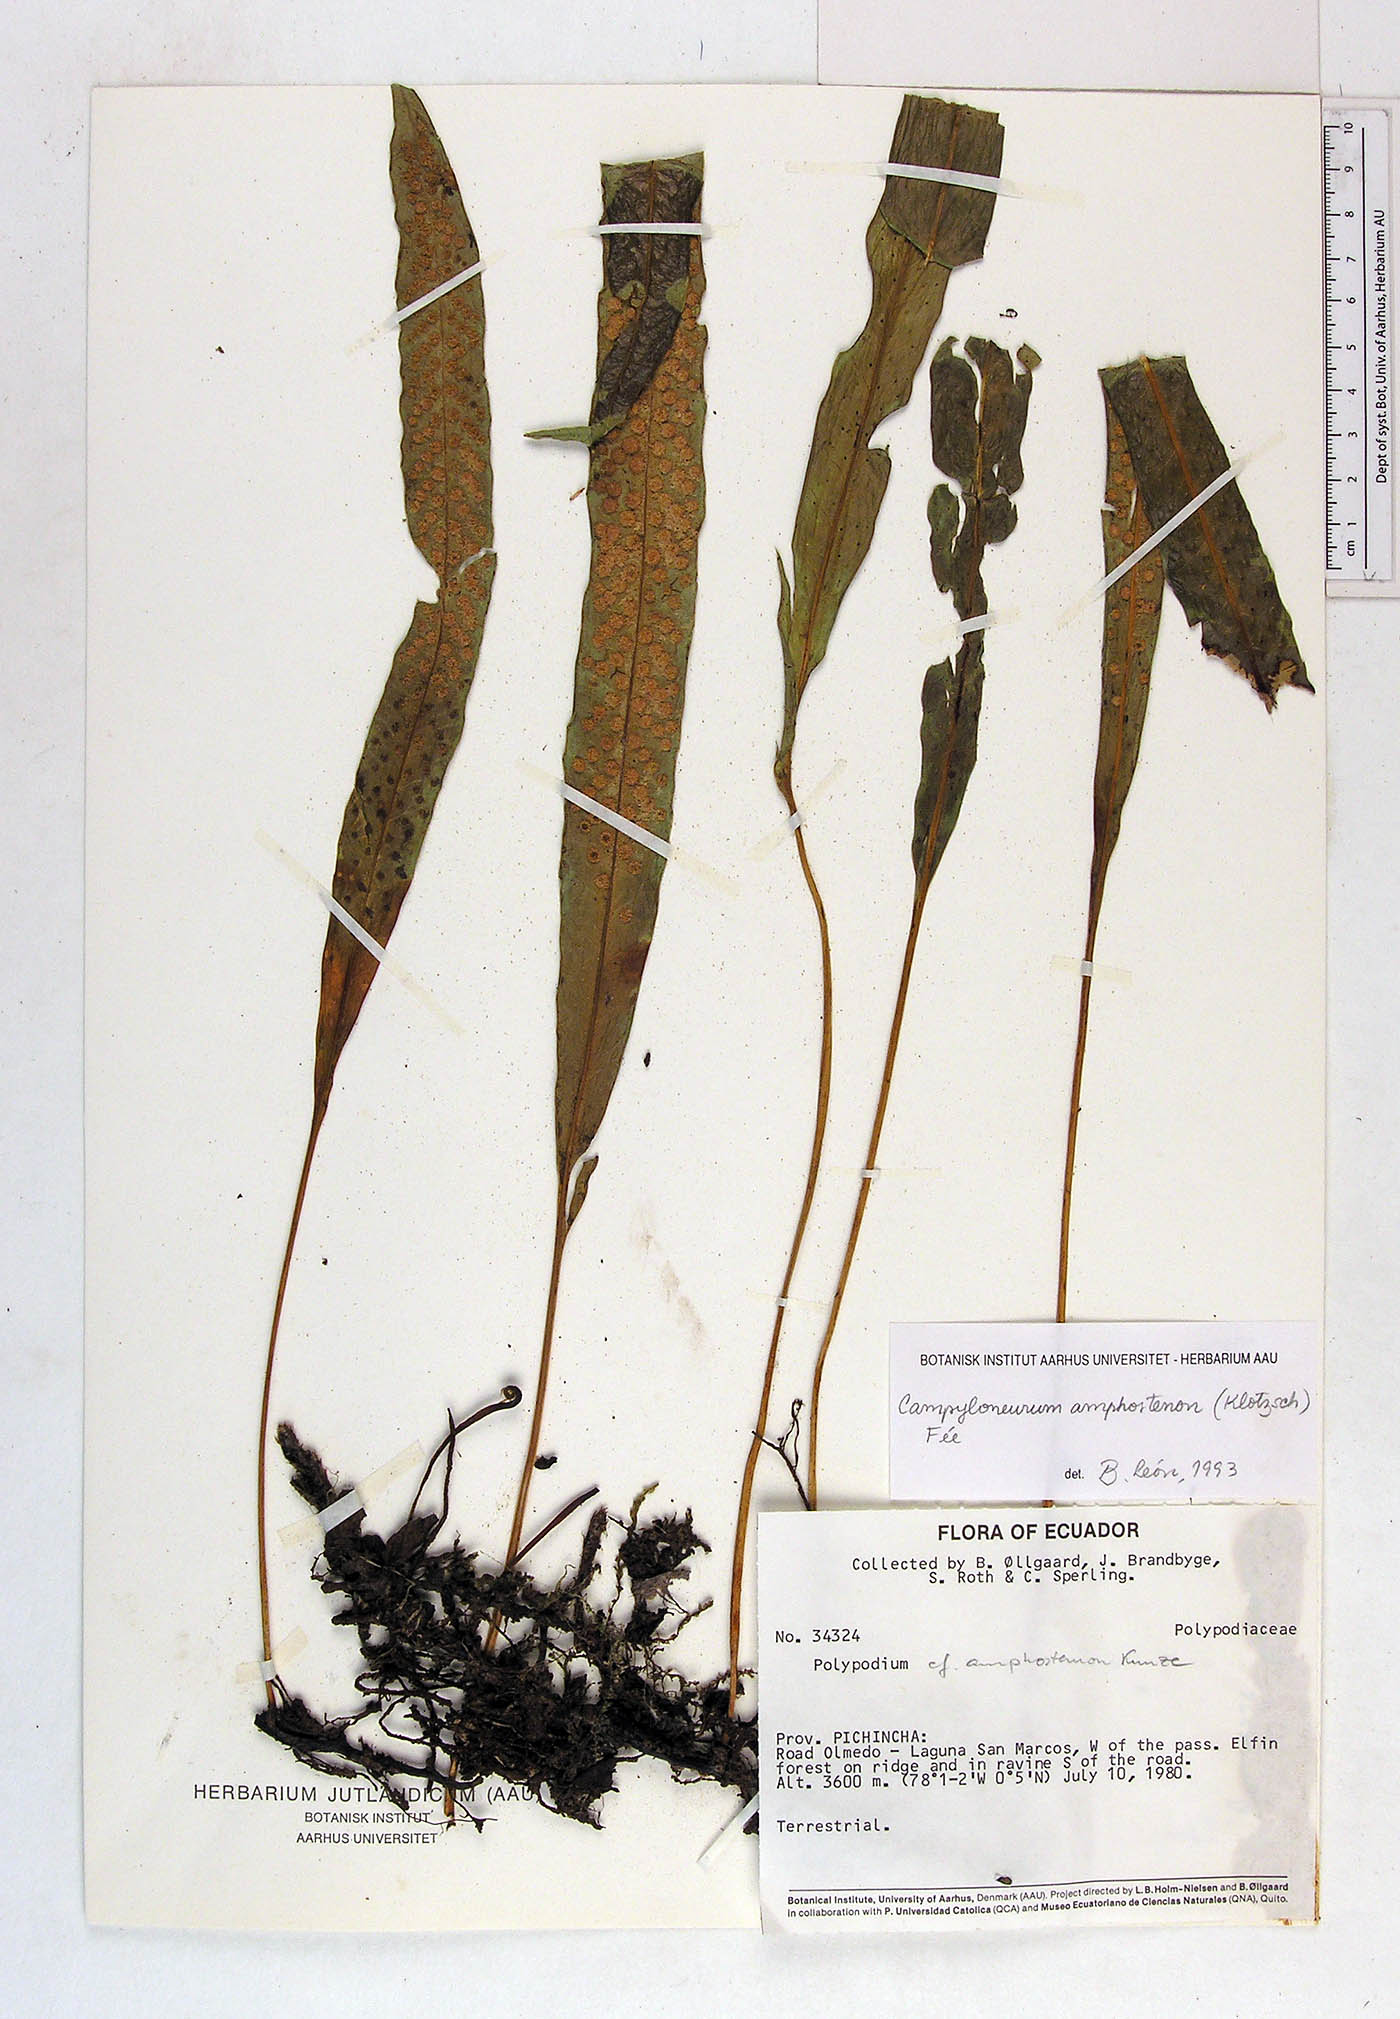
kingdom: Plantae
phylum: Tracheophyta
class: Polypodiopsida
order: Polypodiales
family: Polypodiaceae
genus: Campyloneurum
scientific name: Campyloneurum angustifolium
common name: Narrow-leaf strap fern
